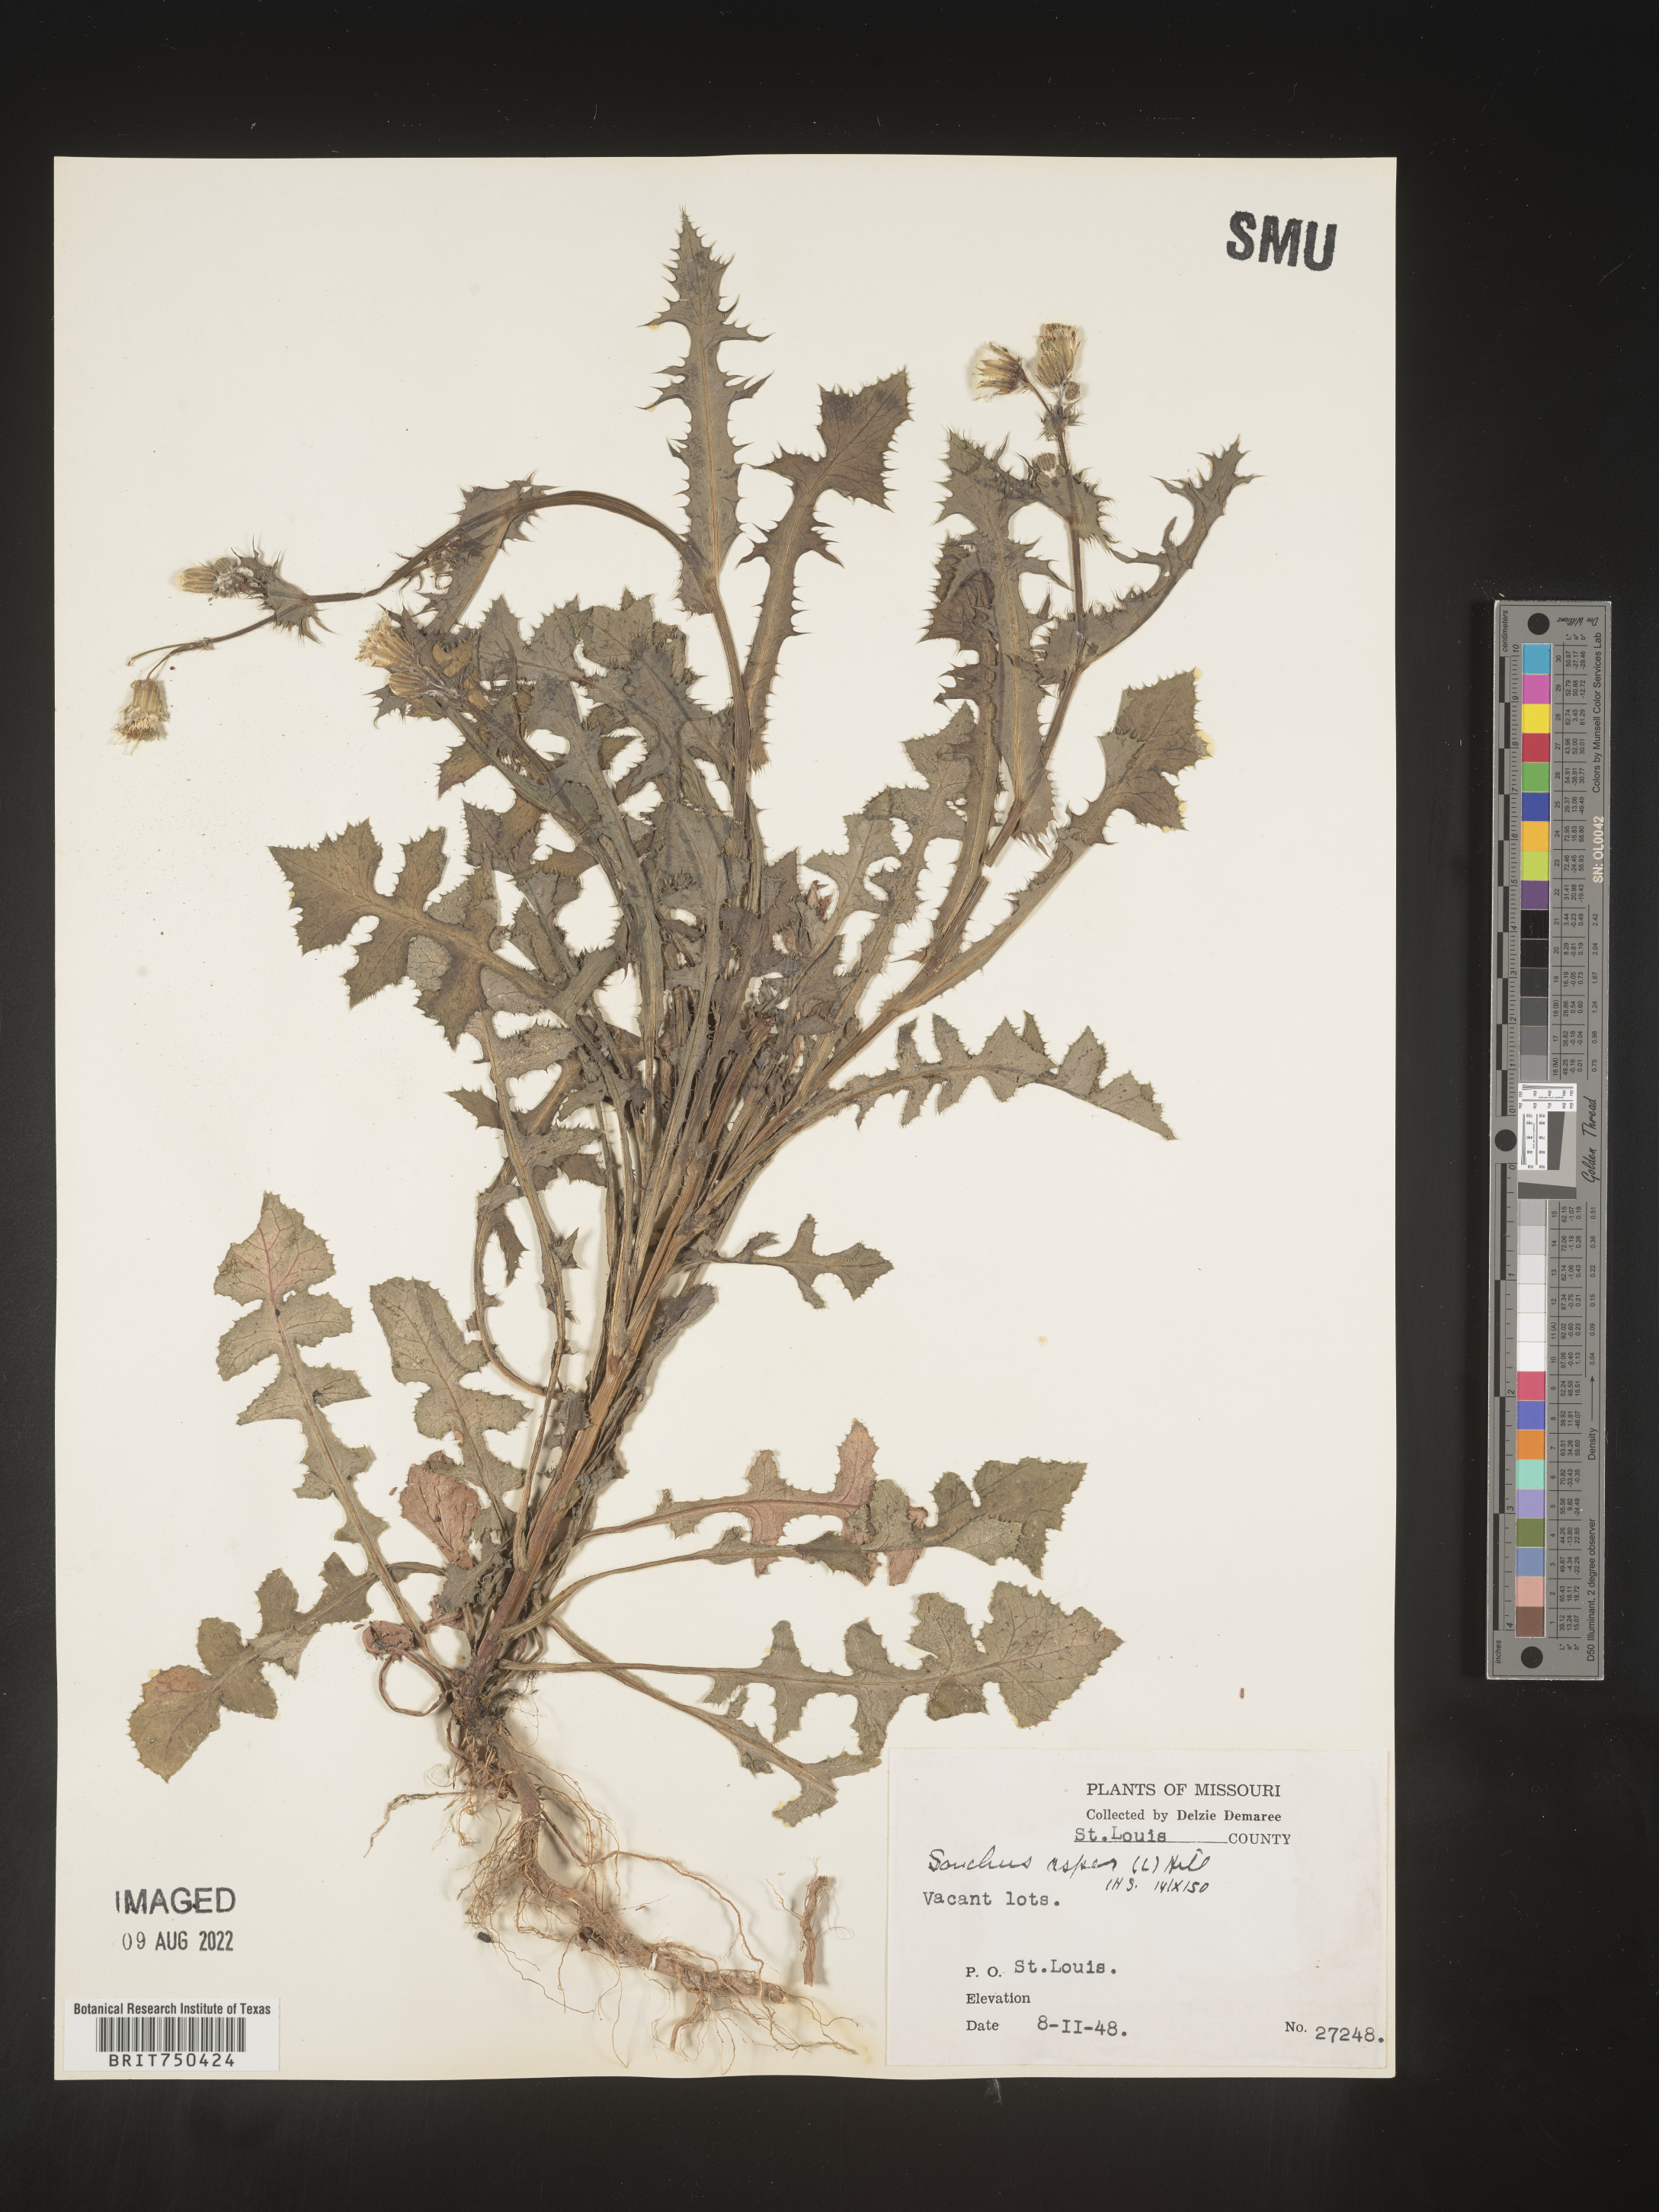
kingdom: Plantae
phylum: Tracheophyta
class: Magnoliopsida
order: Asterales
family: Asteraceae
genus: Sonchus
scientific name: Sonchus asper
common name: Prickly sow-thistle
